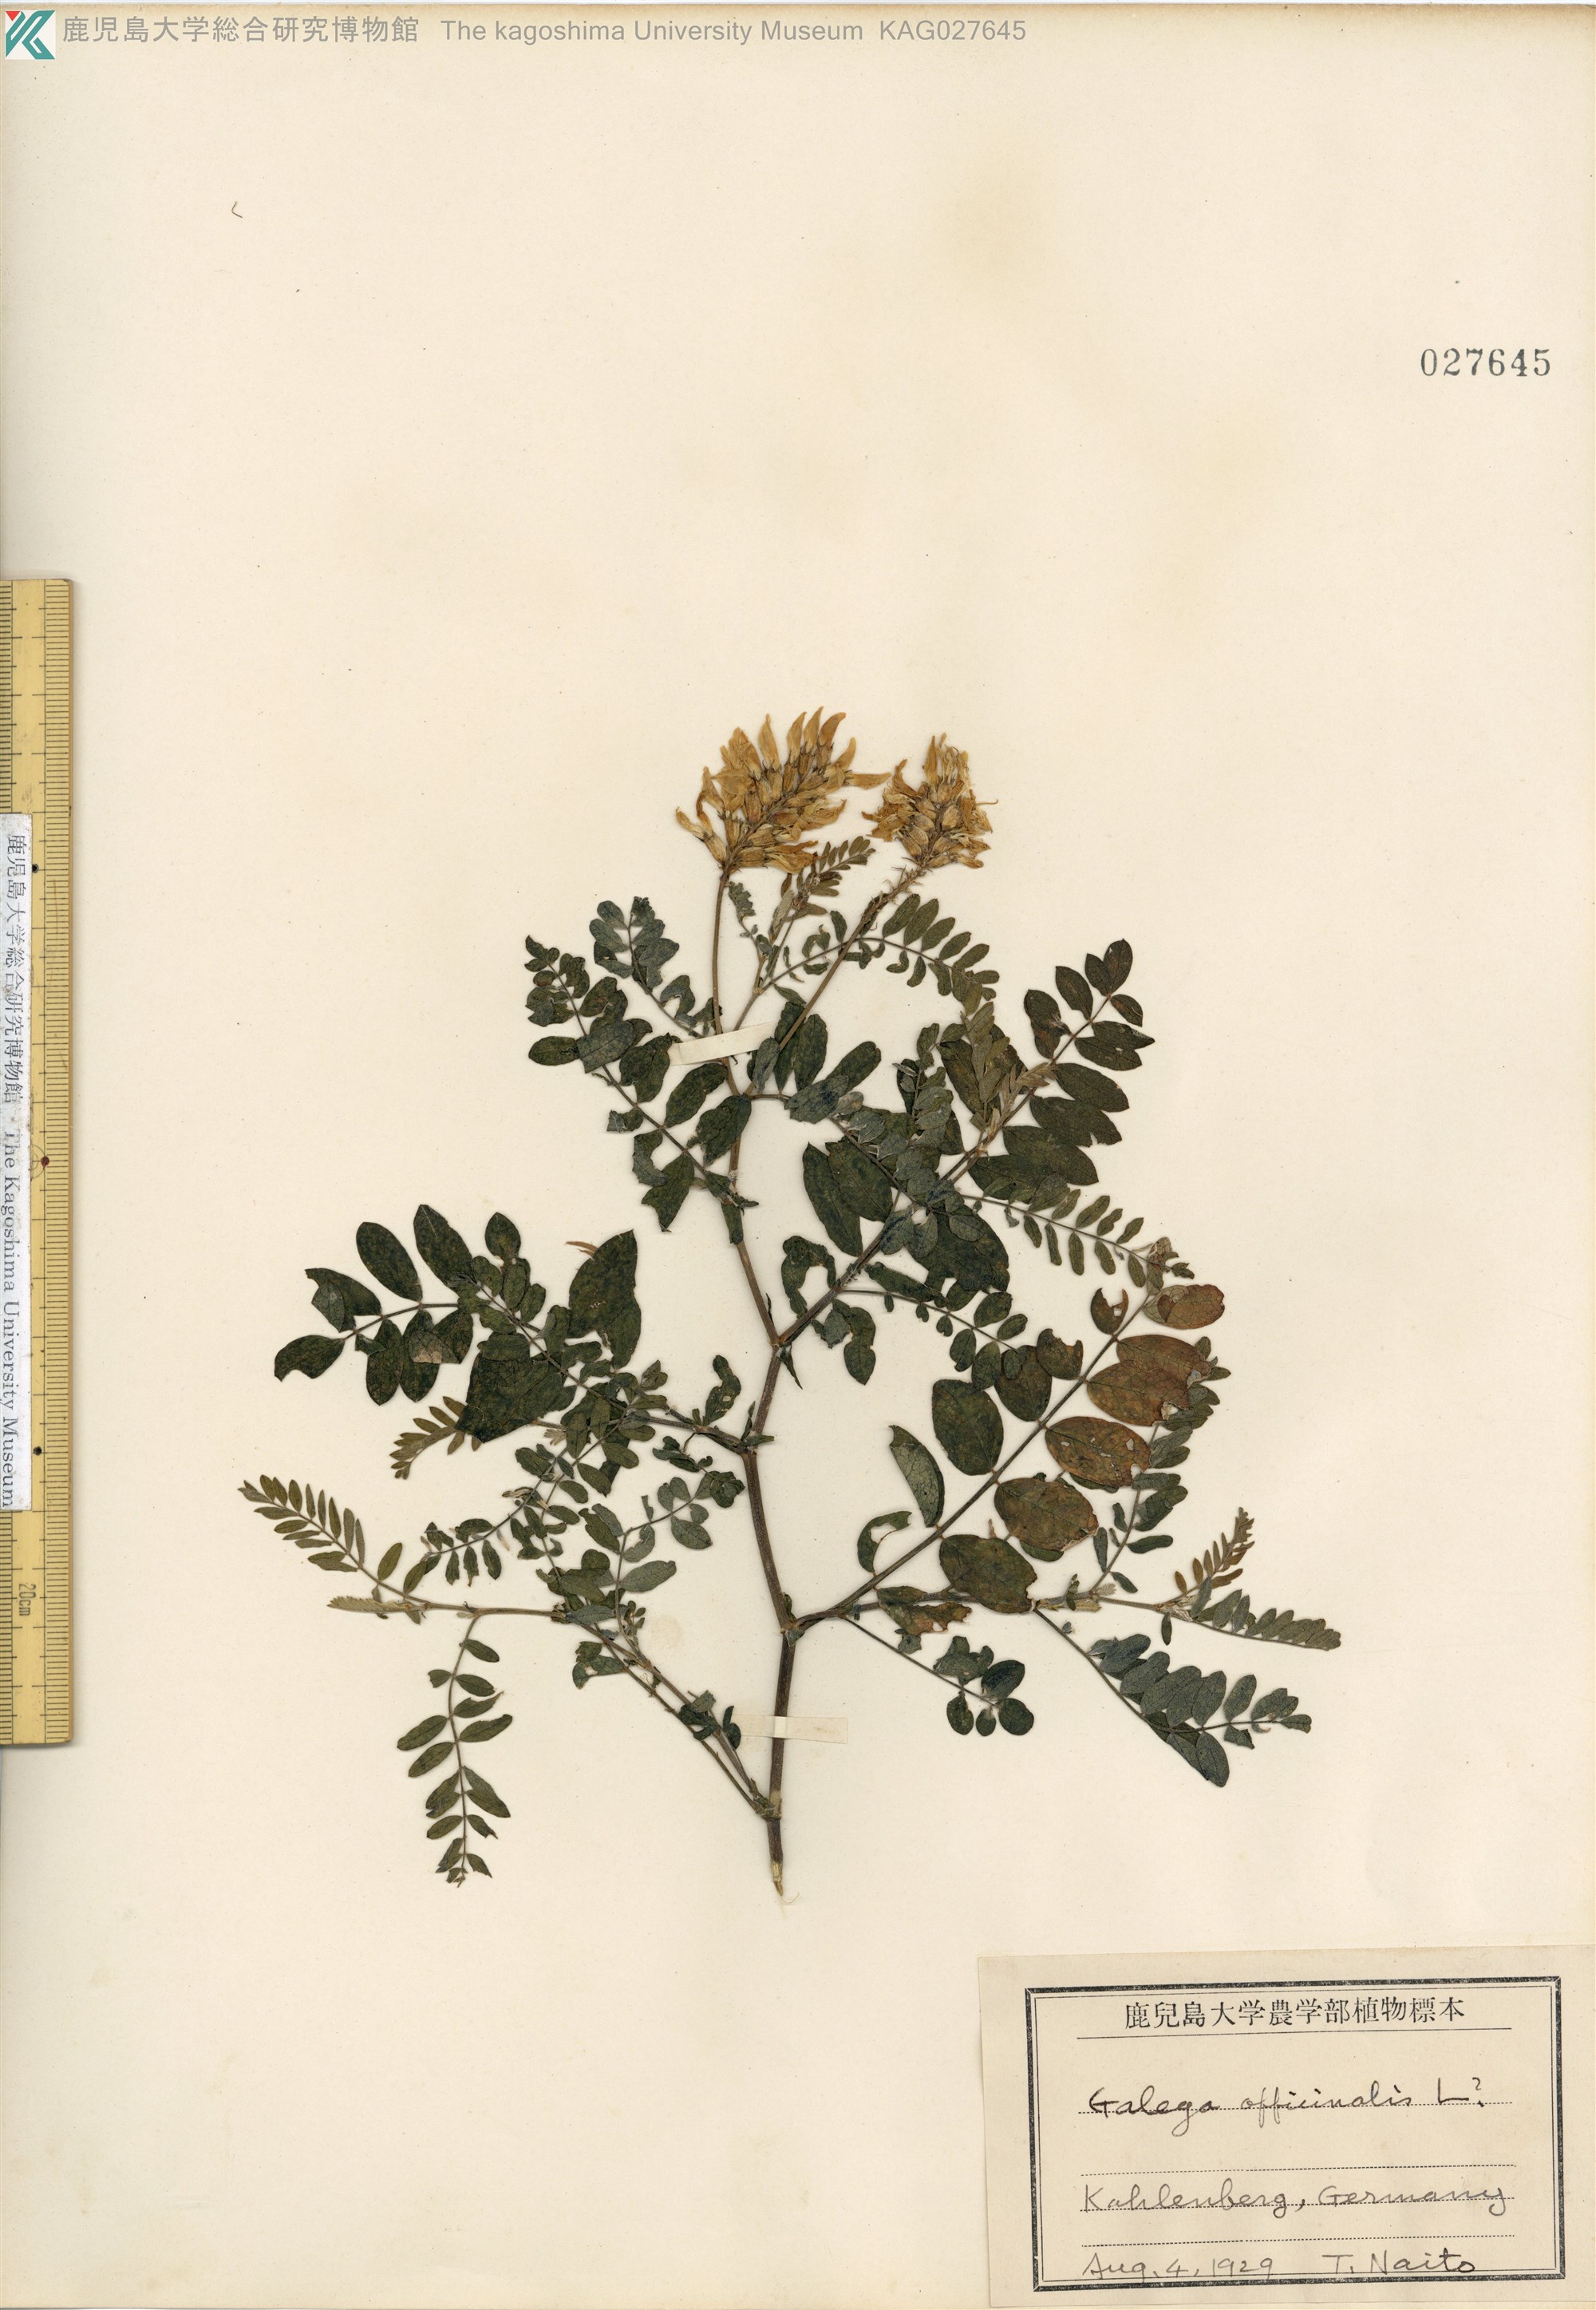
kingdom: Plantae
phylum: Tracheophyta
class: Magnoliopsida
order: Fabales
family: Fabaceae
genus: Galega
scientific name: Galega officinalis
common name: Goat's-rue
